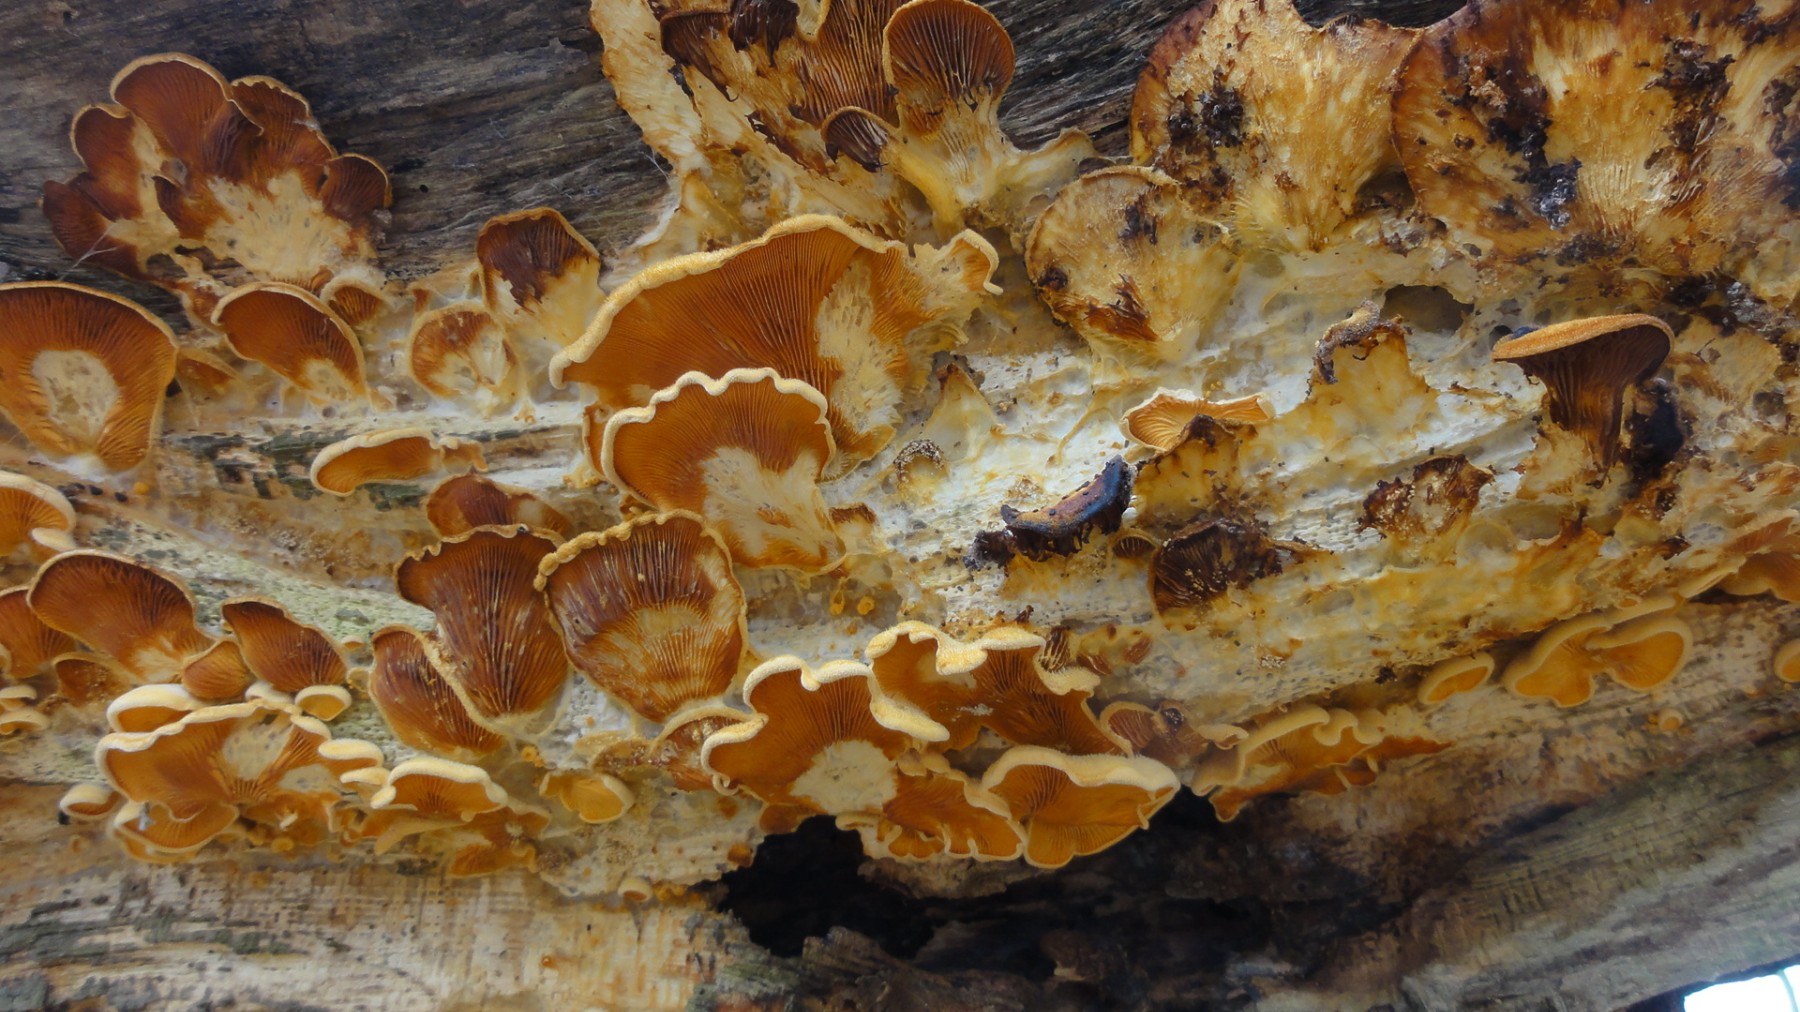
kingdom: Fungi
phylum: Basidiomycota
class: Agaricomycetes
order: Agaricales
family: Phyllotopsidaceae
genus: Phyllotopsis
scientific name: Phyllotopsis nidulans
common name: okkerblad
